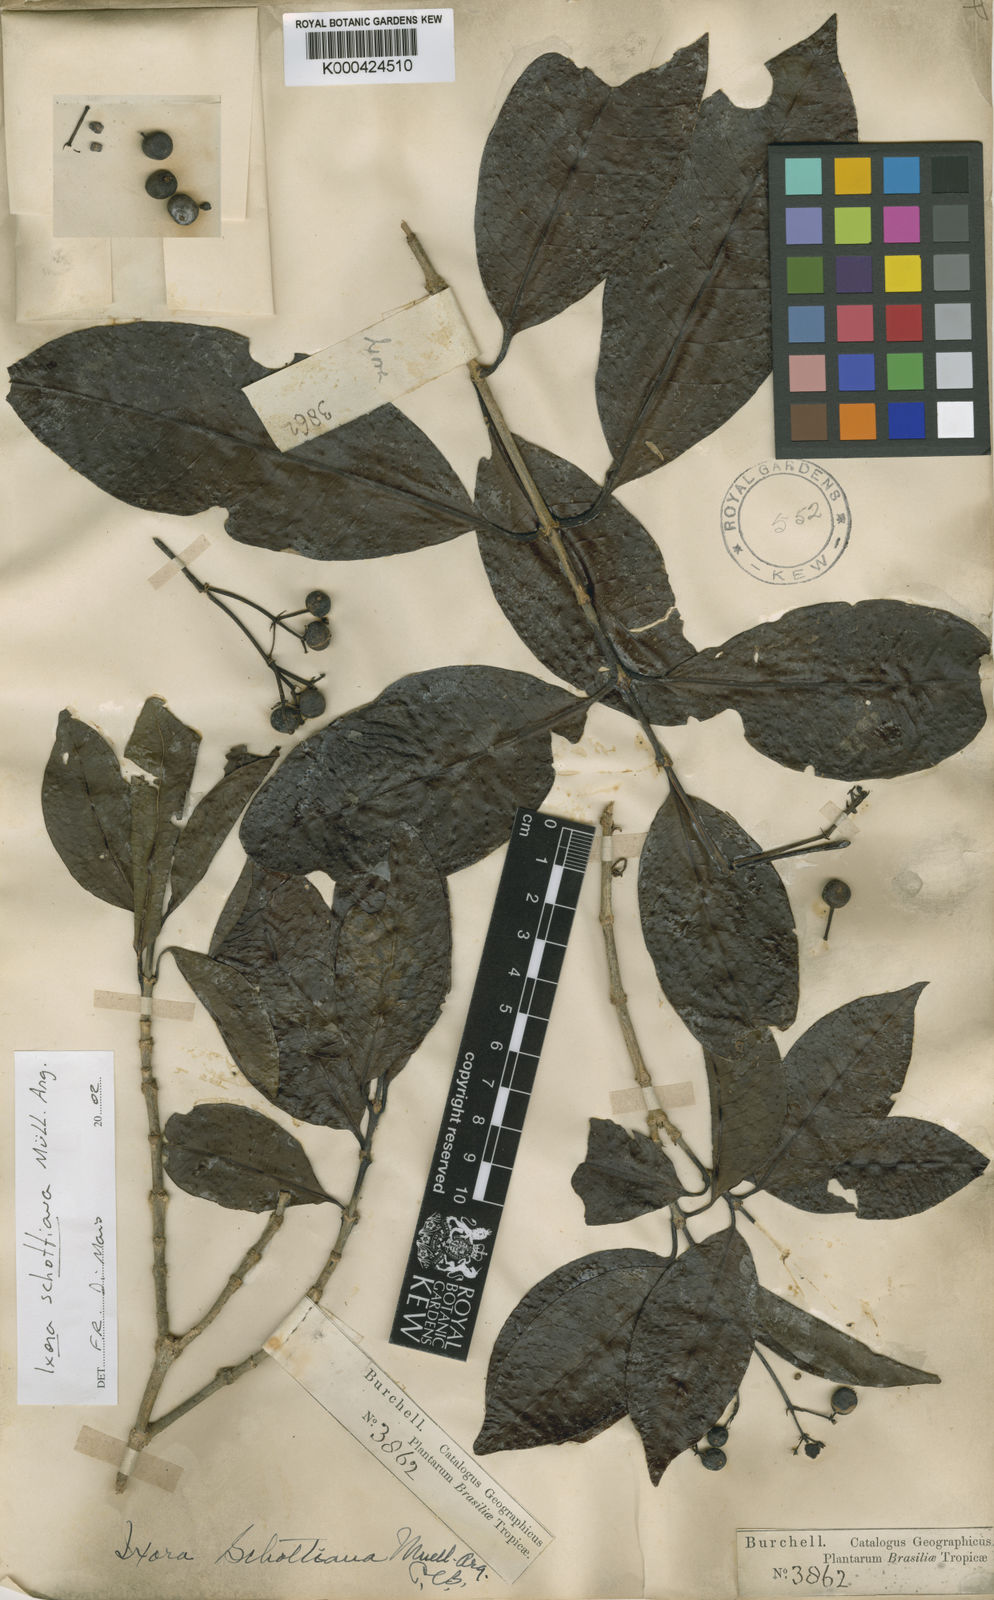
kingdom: Plantae
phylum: Tracheophyta
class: Magnoliopsida
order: Gentianales
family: Rubiaceae
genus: Ixora
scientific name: Ixora
